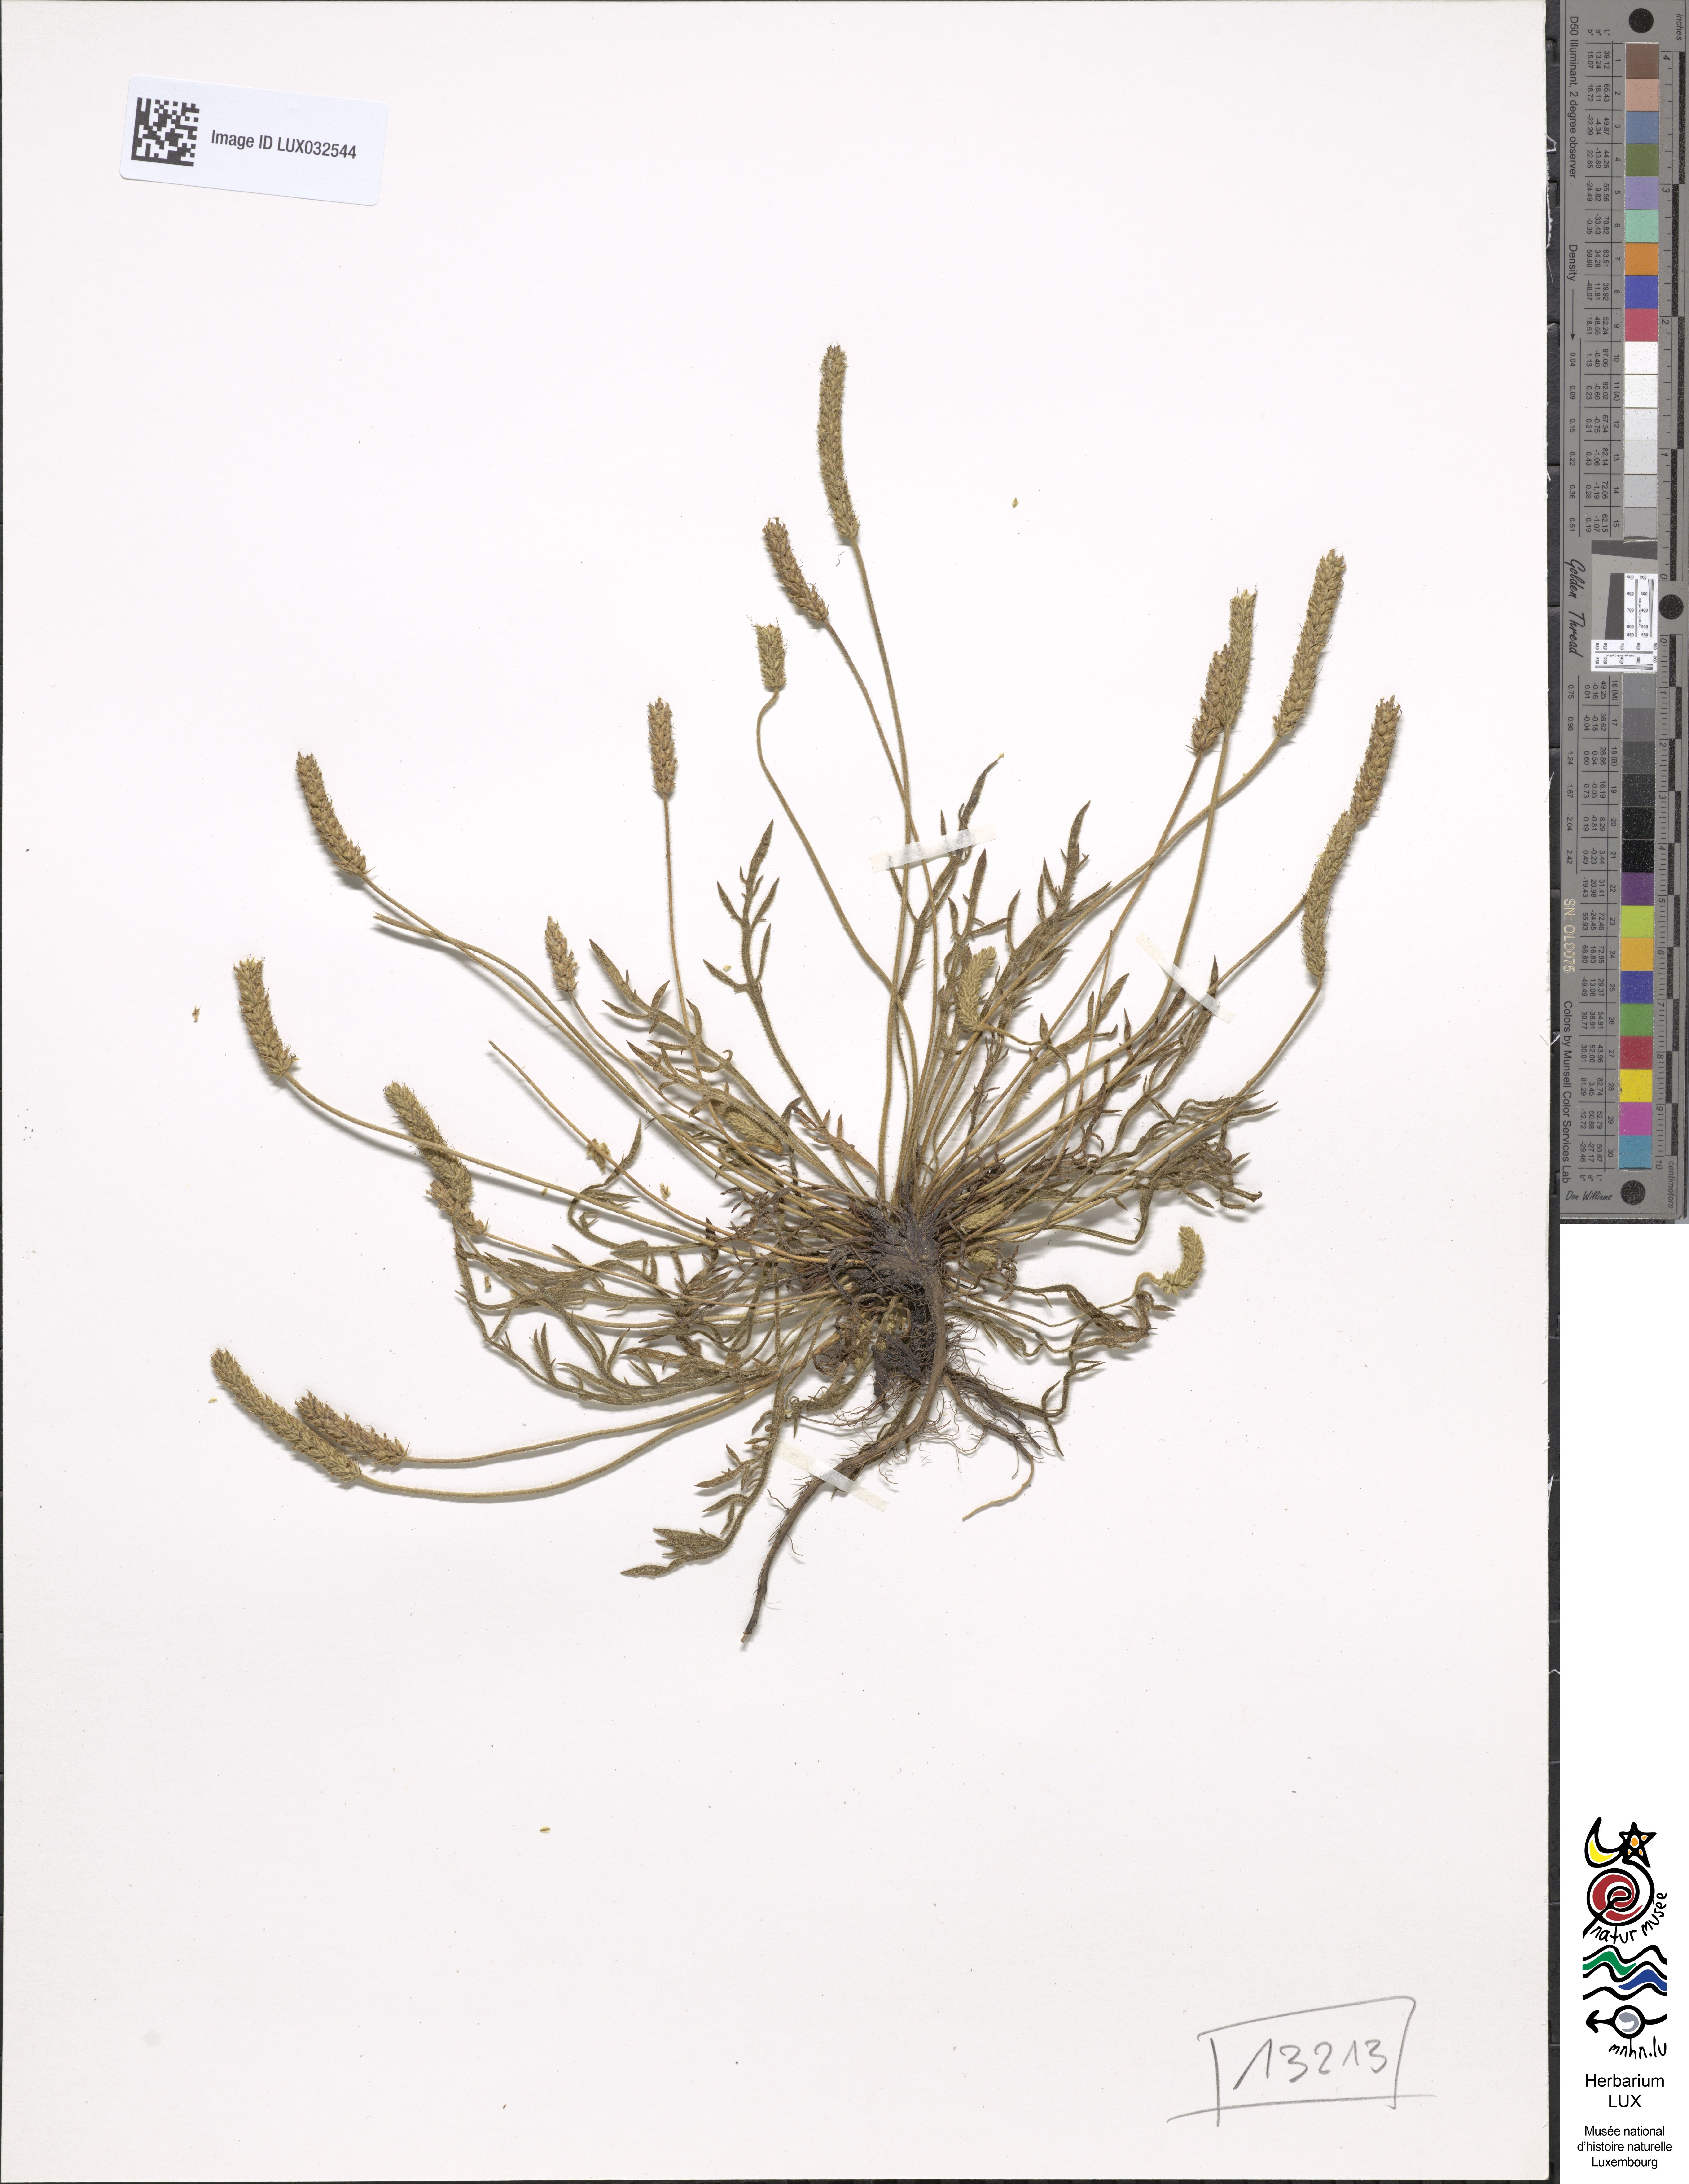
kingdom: Plantae
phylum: Tracheophyta
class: Magnoliopsida
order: Lamiales
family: Plantaginaceae
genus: Plantago
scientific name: Plantago coronopus
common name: Buck's-horn plantain
